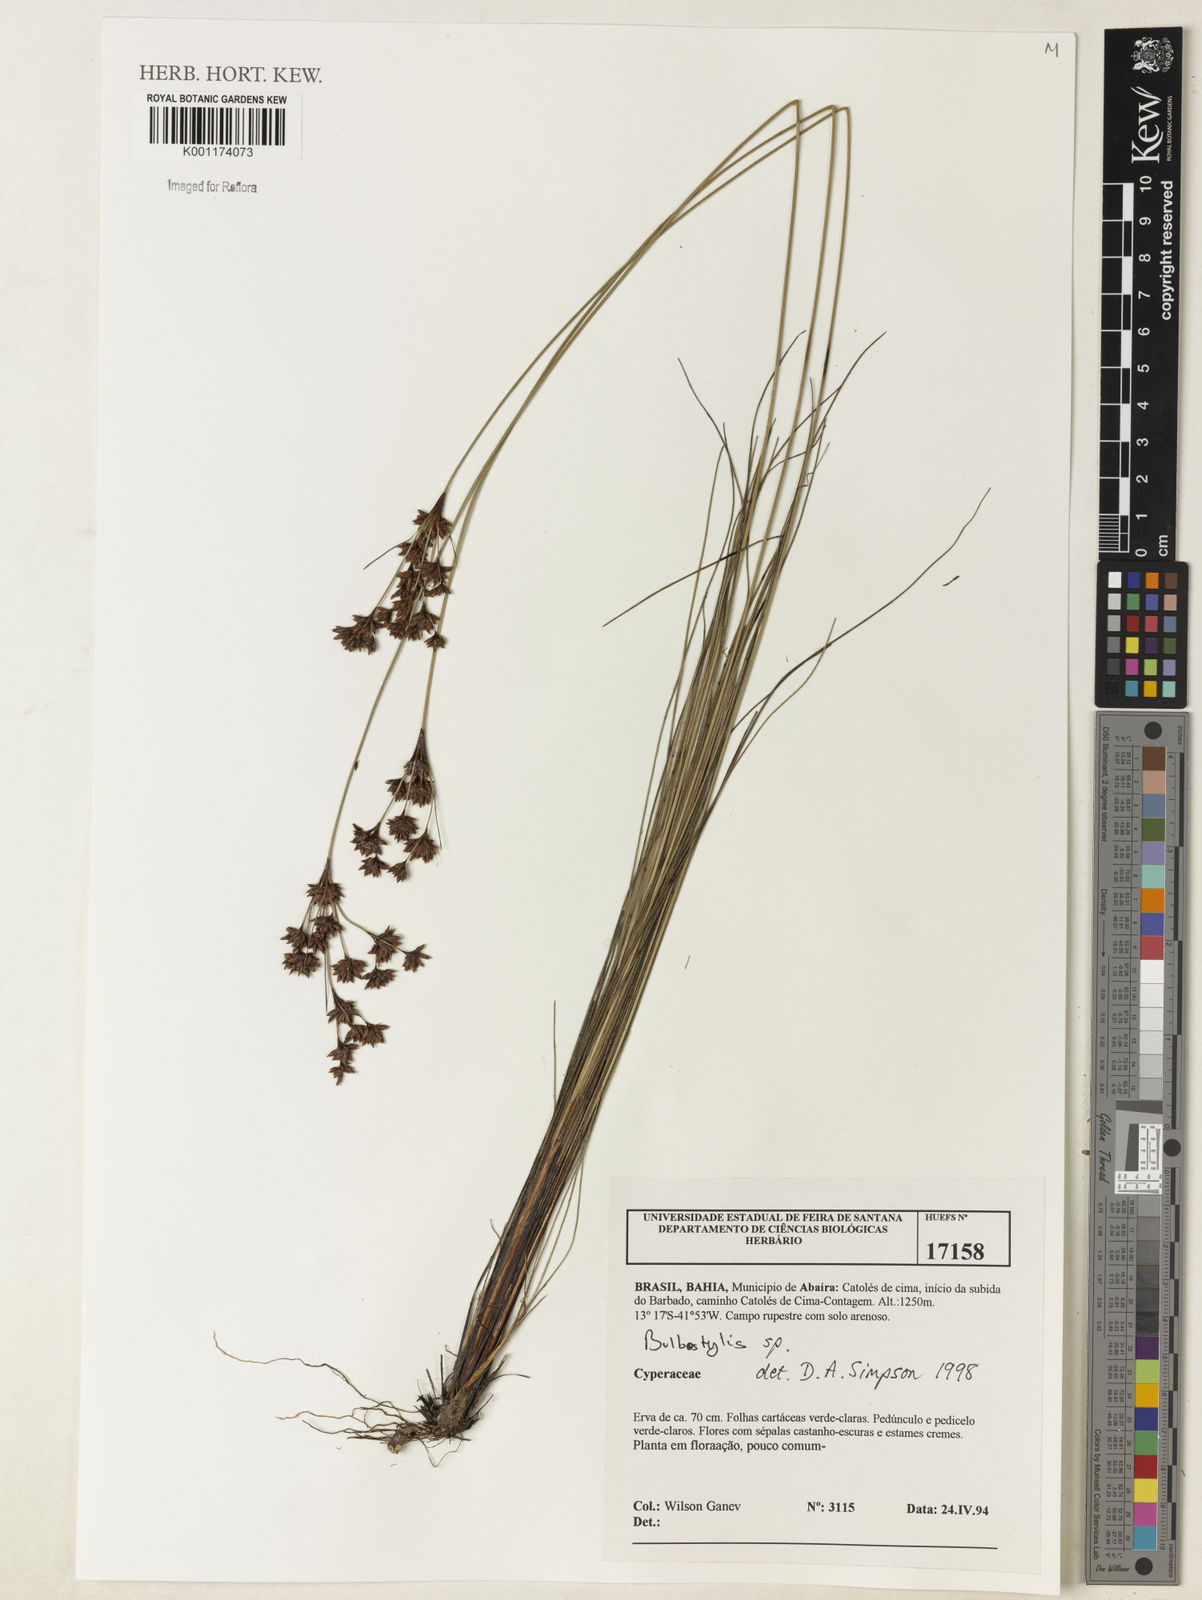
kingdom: Plantae
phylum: Tracheophyta
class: Liliopsida
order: Poales
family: Cyperaceae
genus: Bulbostylis
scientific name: Bulbostylis
